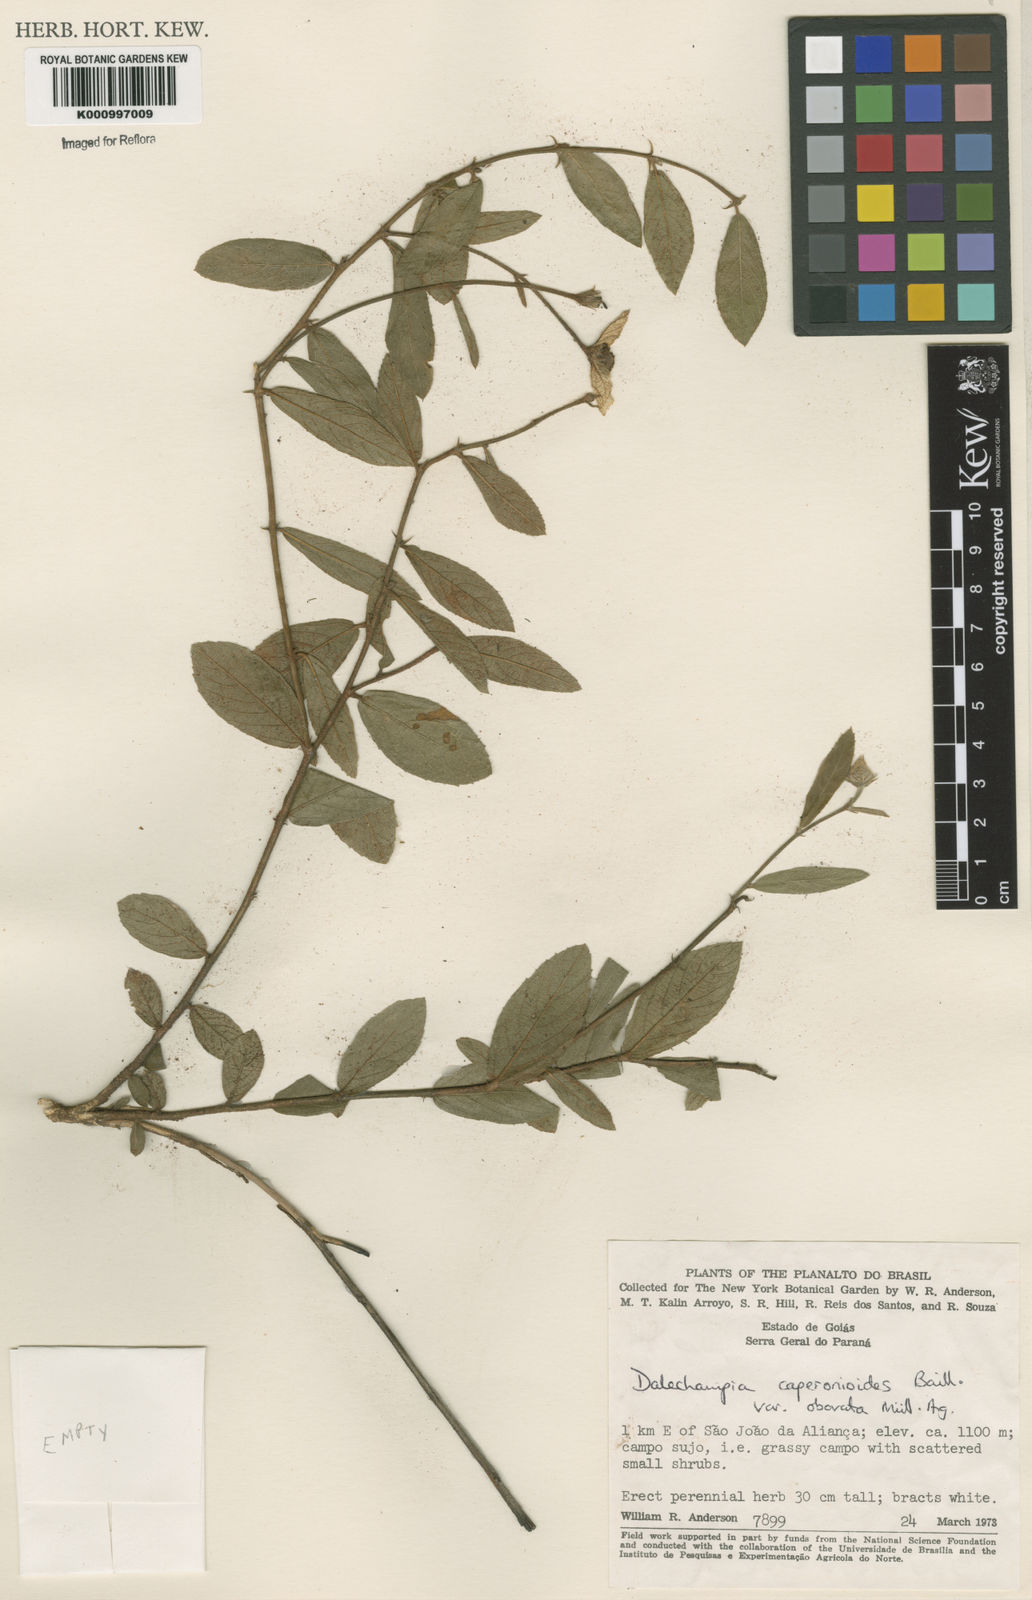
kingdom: Plantae
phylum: Tracheophyta
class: Magnoliopsida
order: Malpighiales
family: Euphorbiaceae
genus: Dalechampia
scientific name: Dalechampia caperonioides
